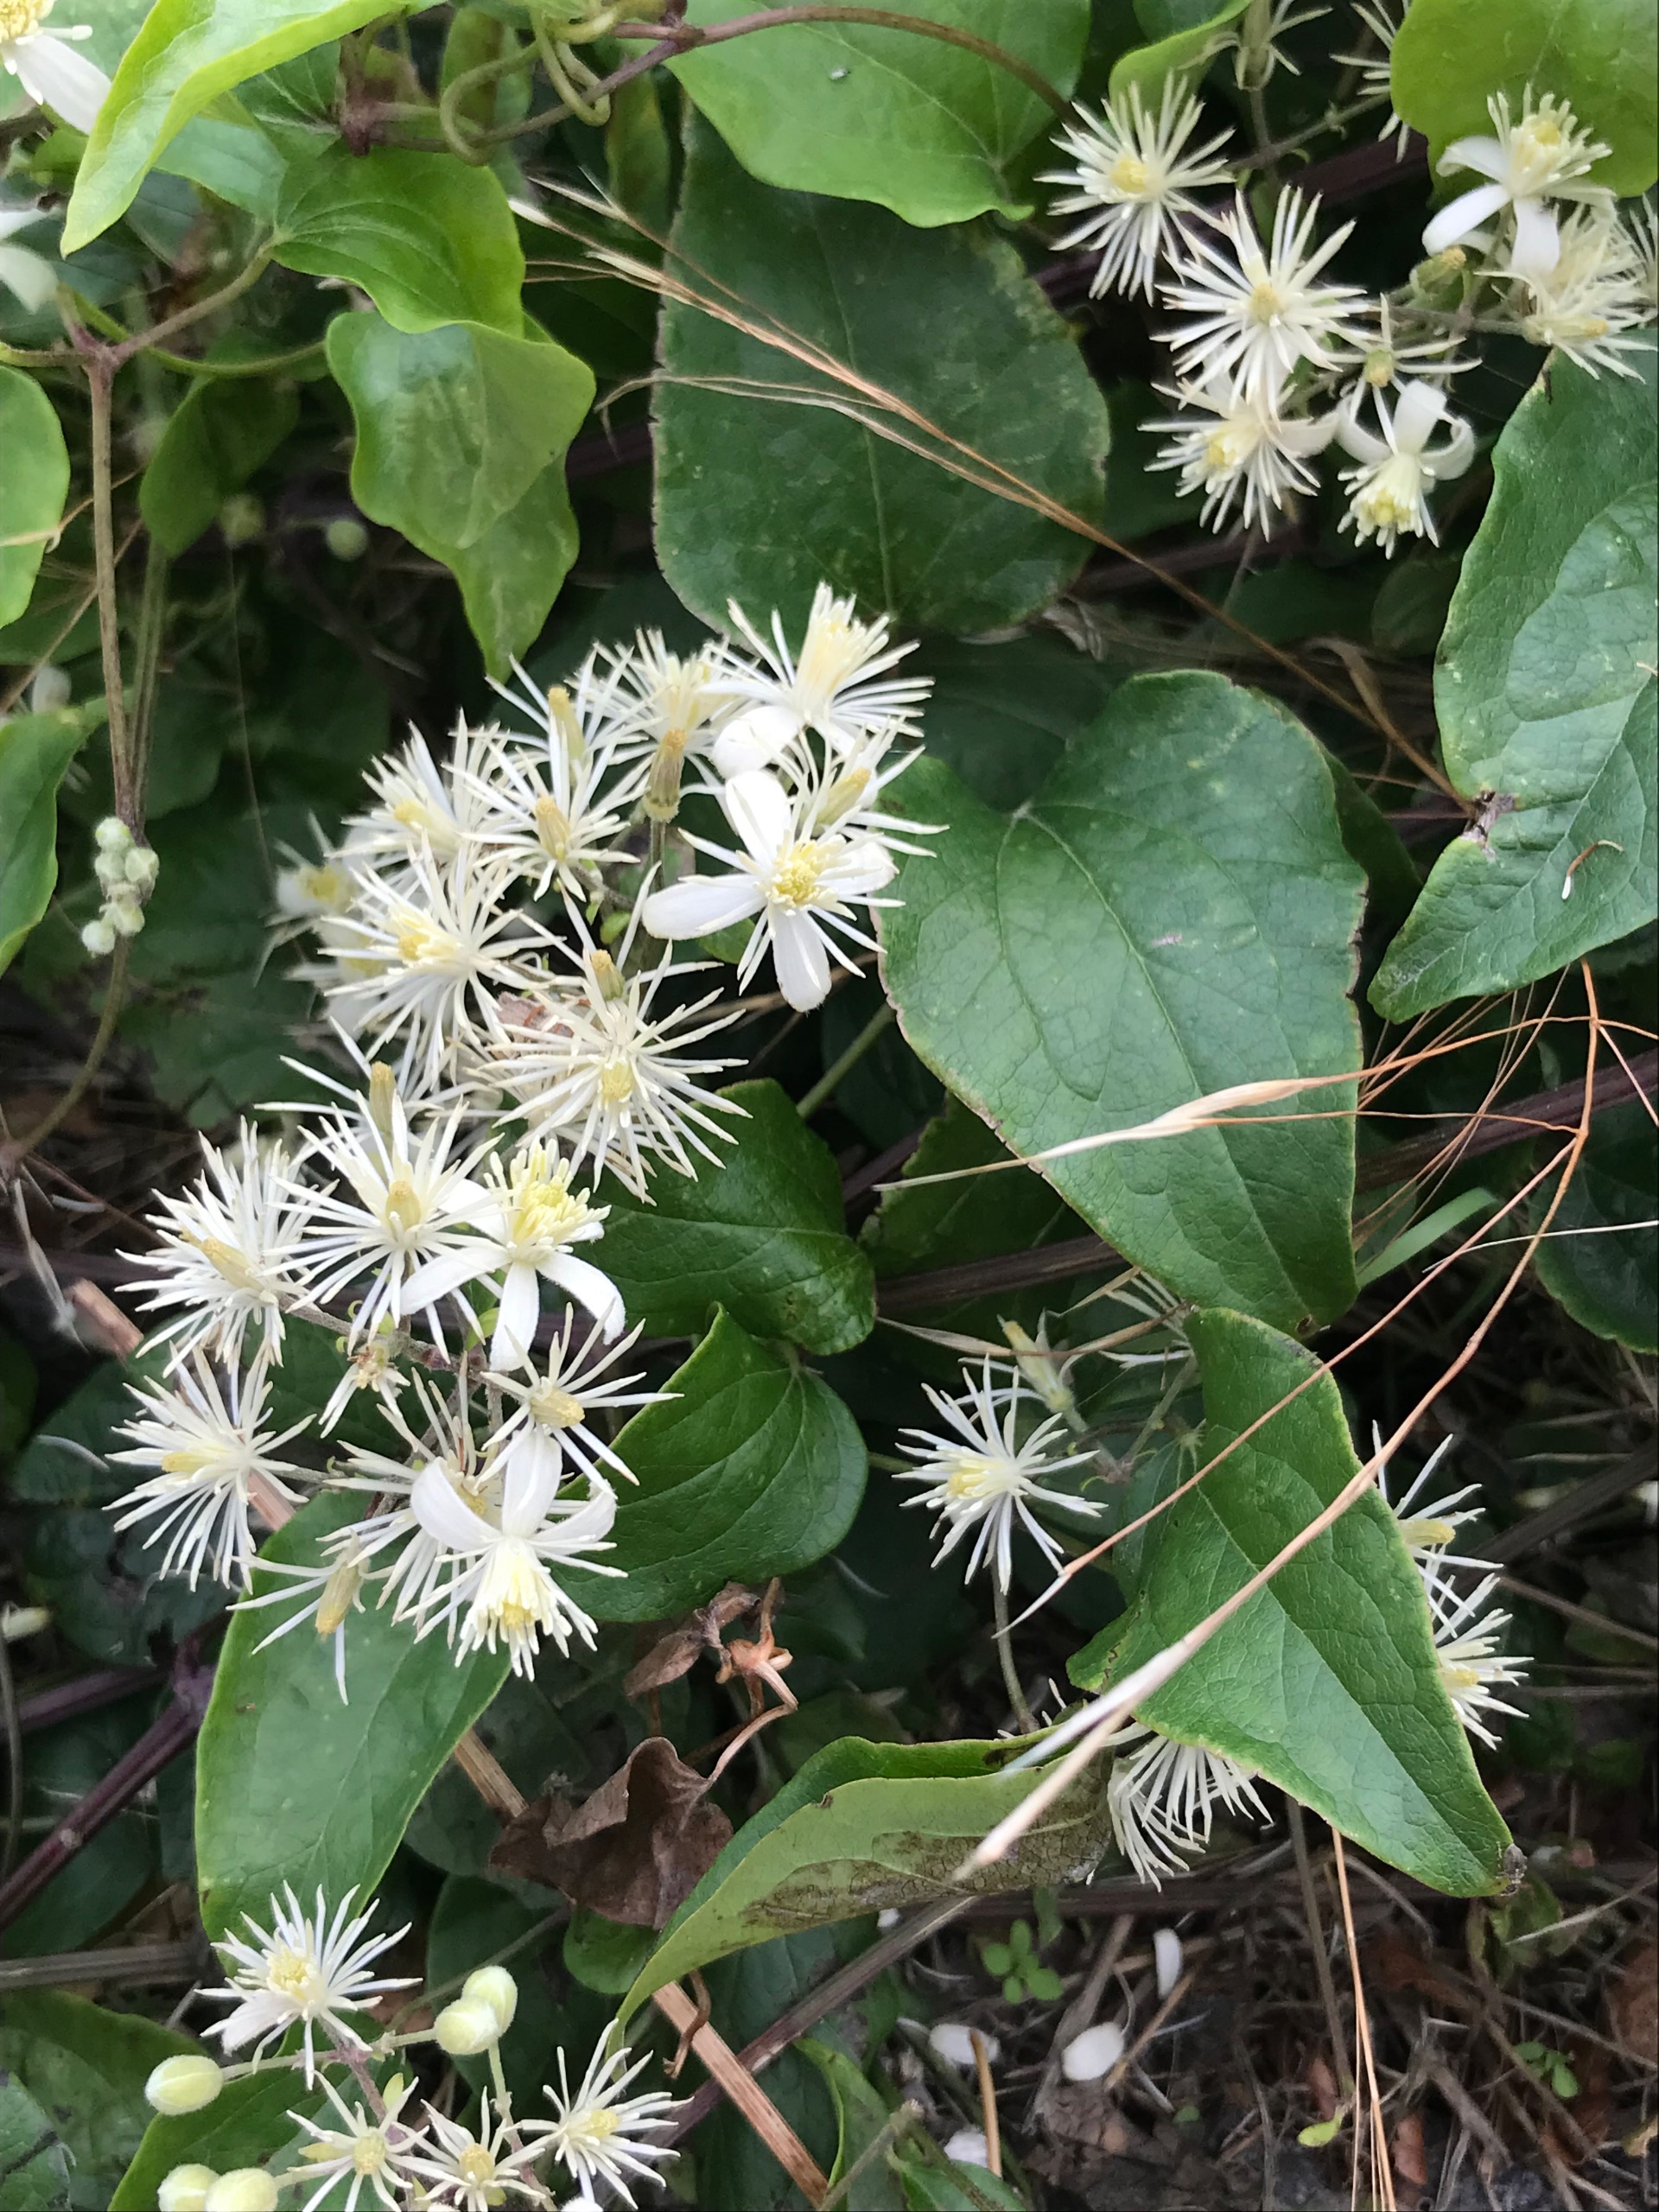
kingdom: Plantae
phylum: Tracheophyta
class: Magnoliopsida
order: Ranunculales
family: Ranunculaceae
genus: Clematis
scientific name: Clematis vitalba
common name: Skovranke
